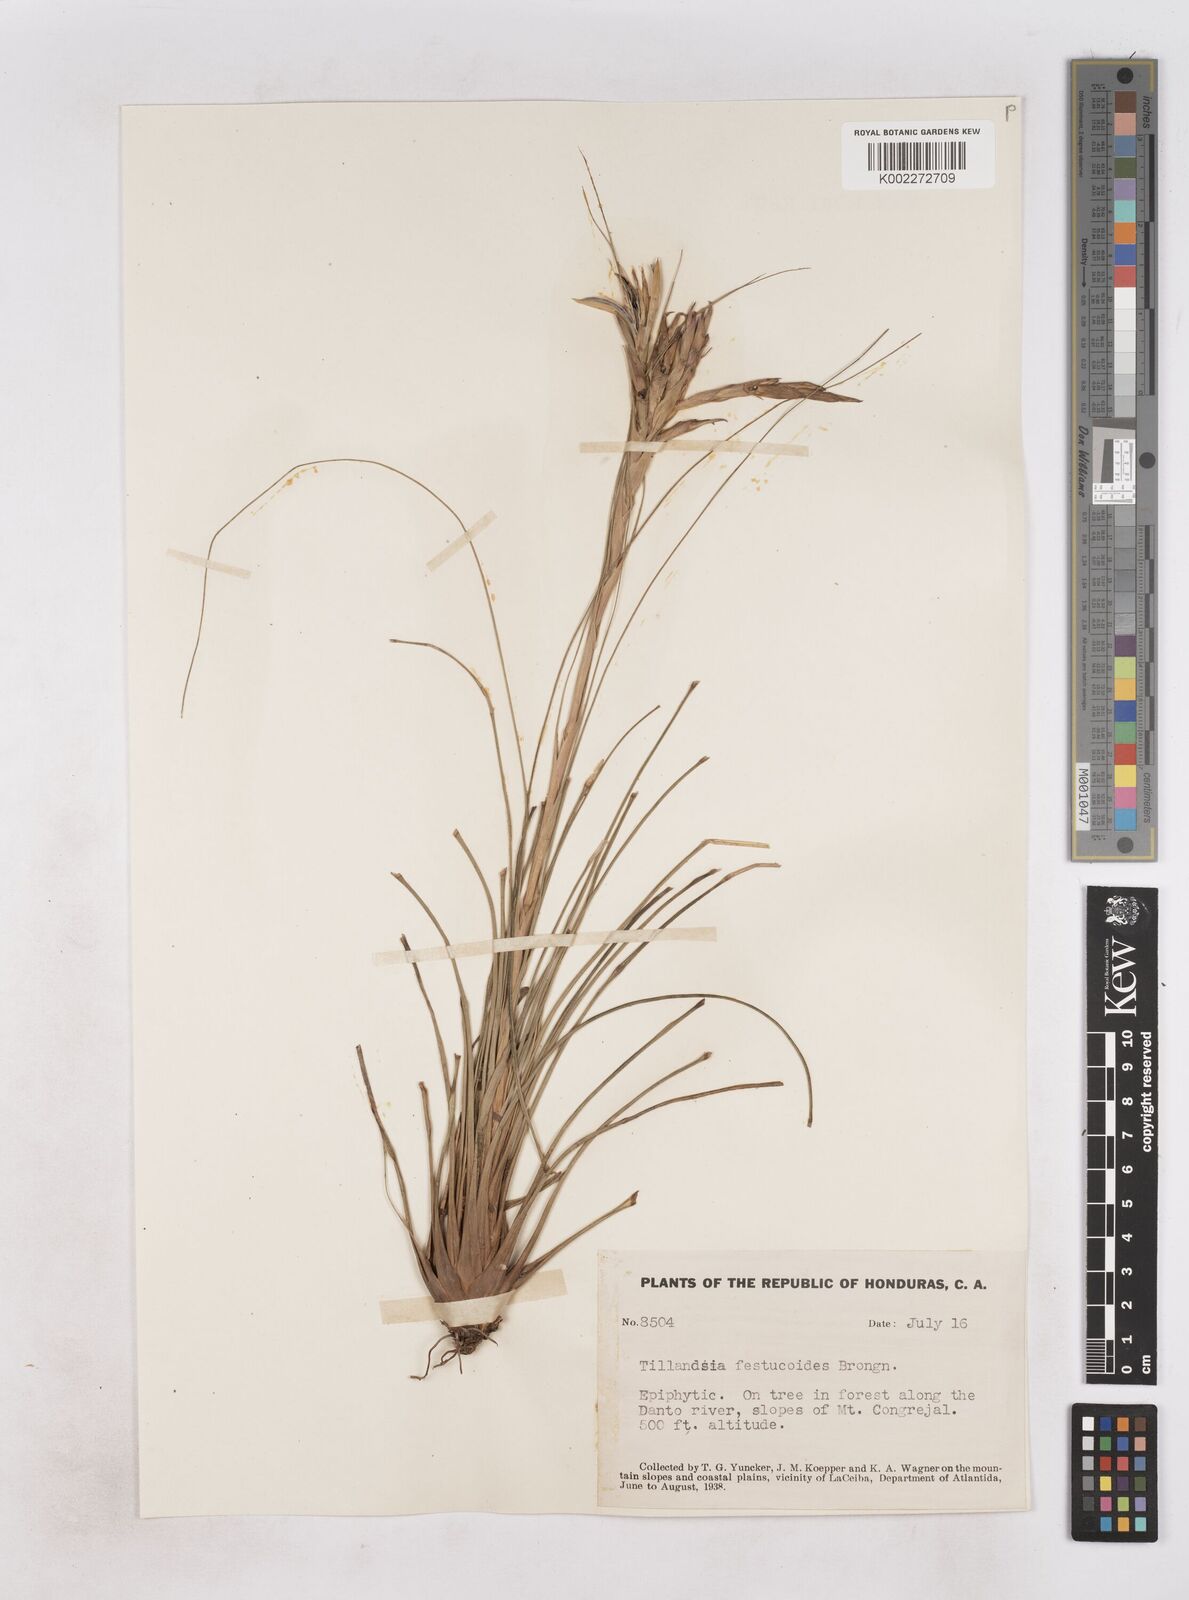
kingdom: Plantae
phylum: Tracheophyta
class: Liliopsida
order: Poales
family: Bromeliaceae
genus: Tillandsia
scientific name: Tillandsia festucoides
